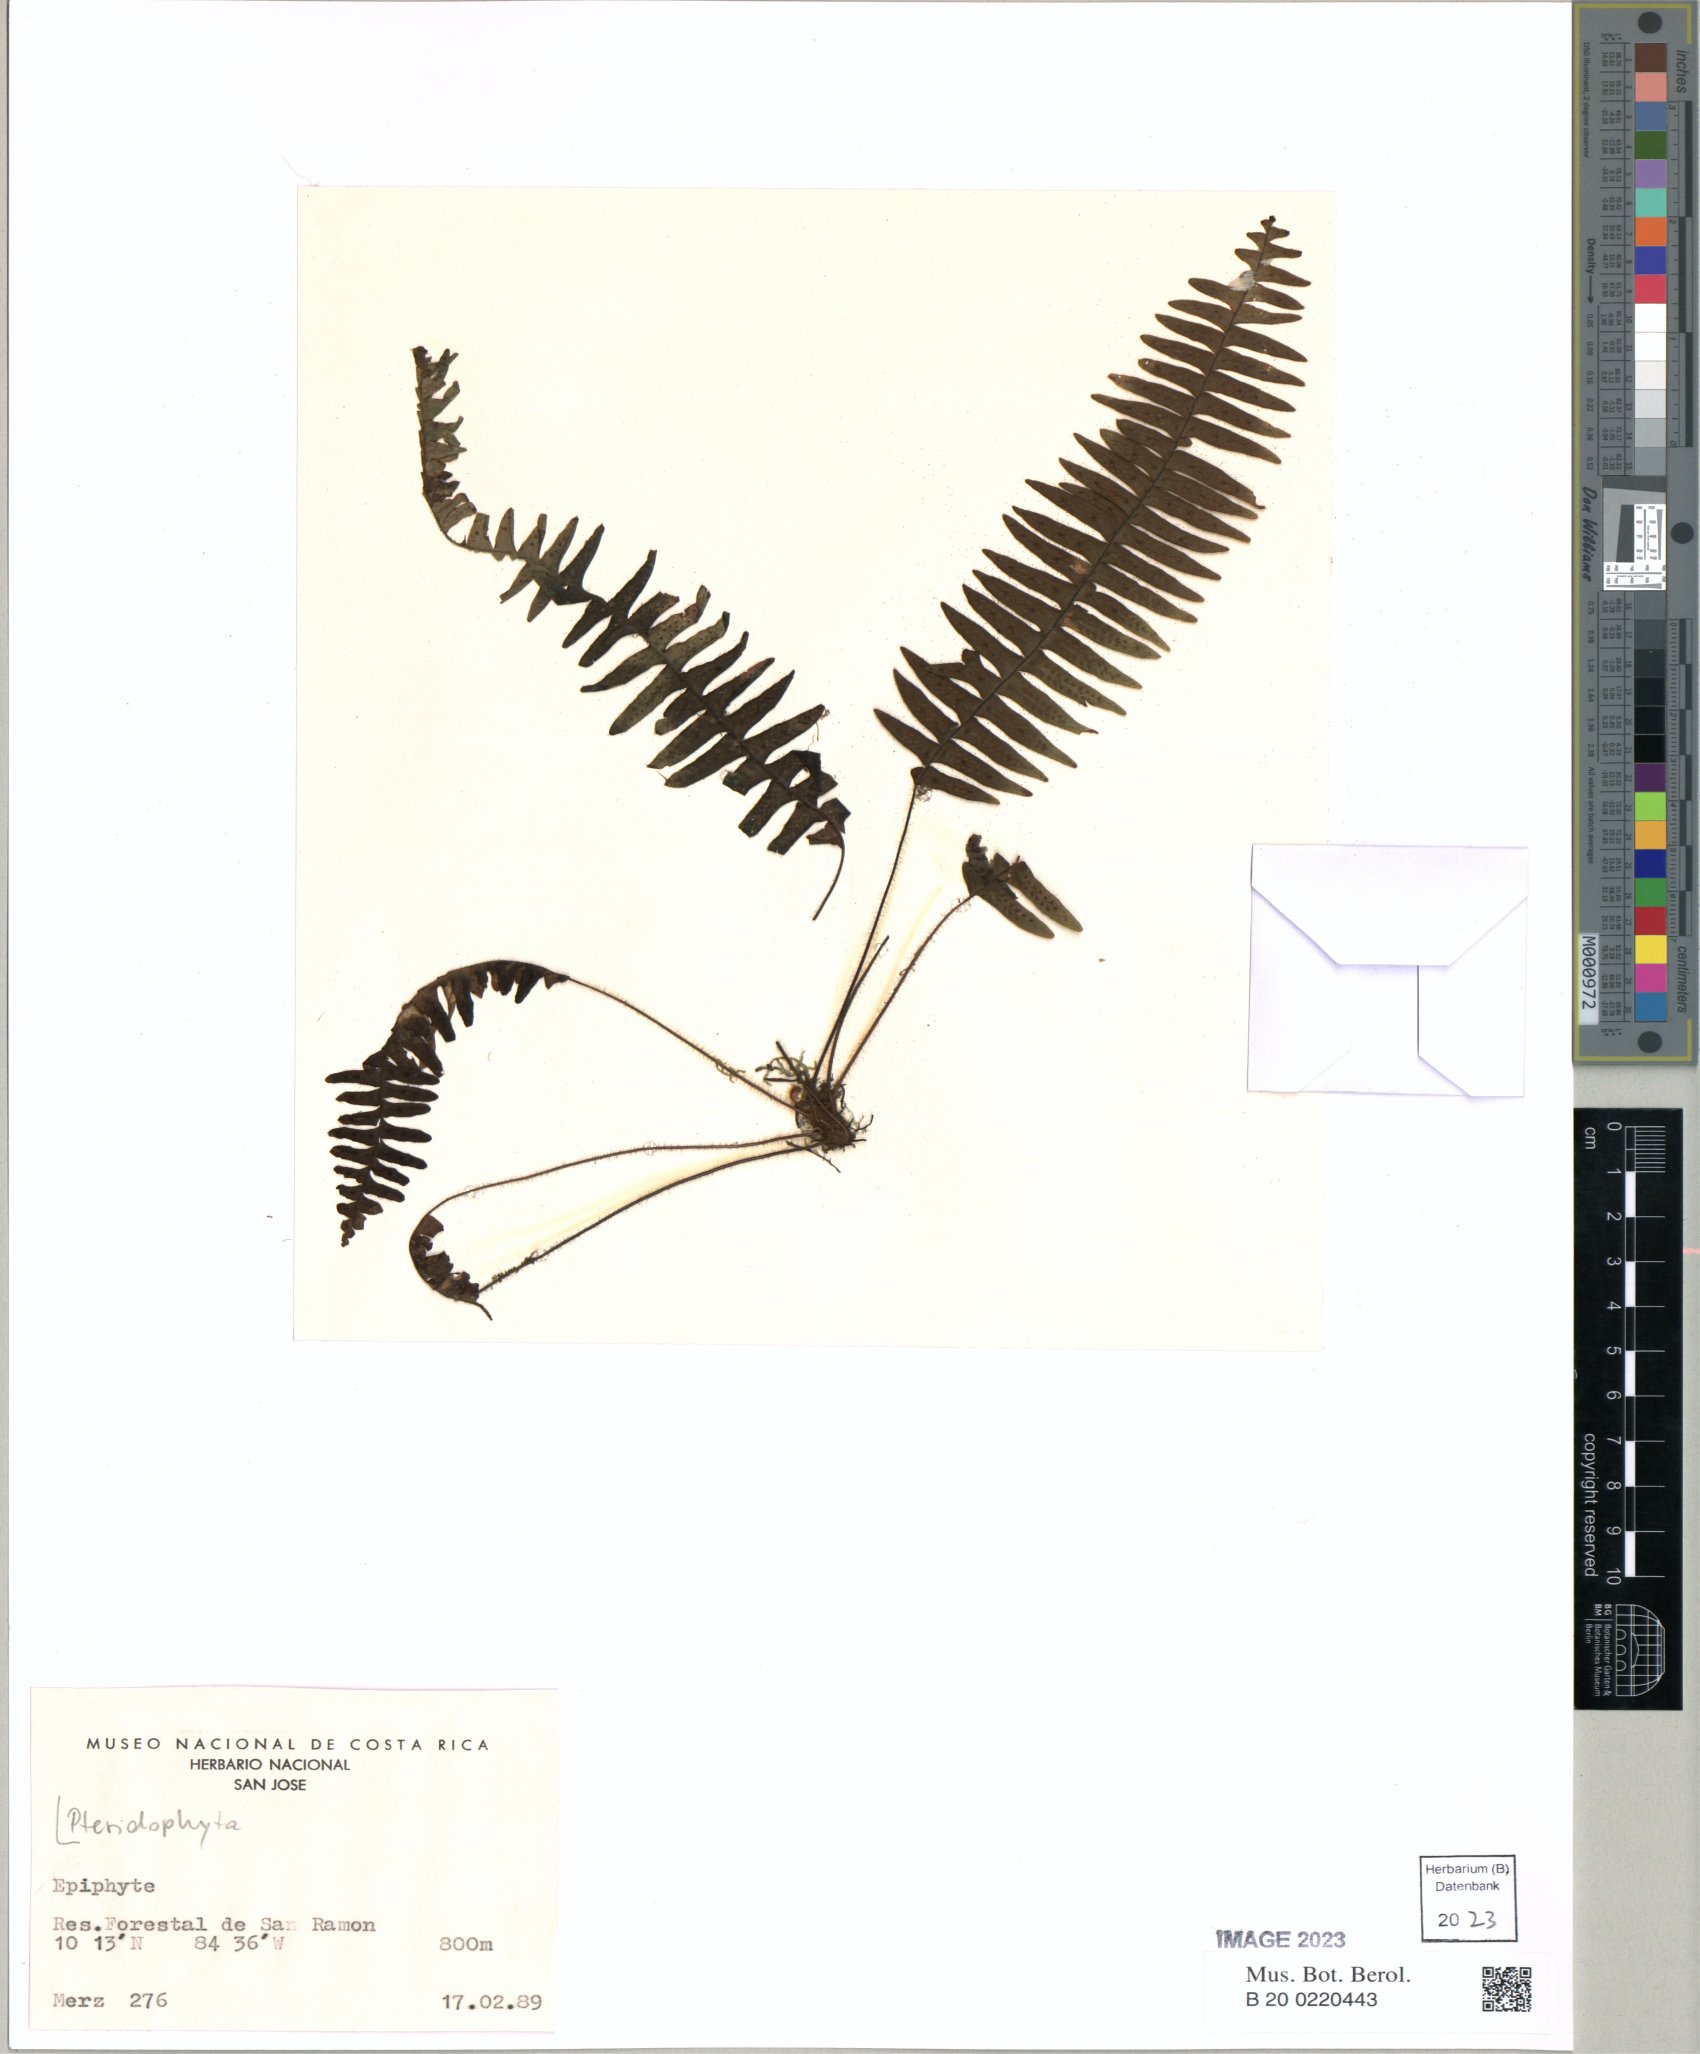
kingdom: Plantae
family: Pteridophyta
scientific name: Pteridophyta
